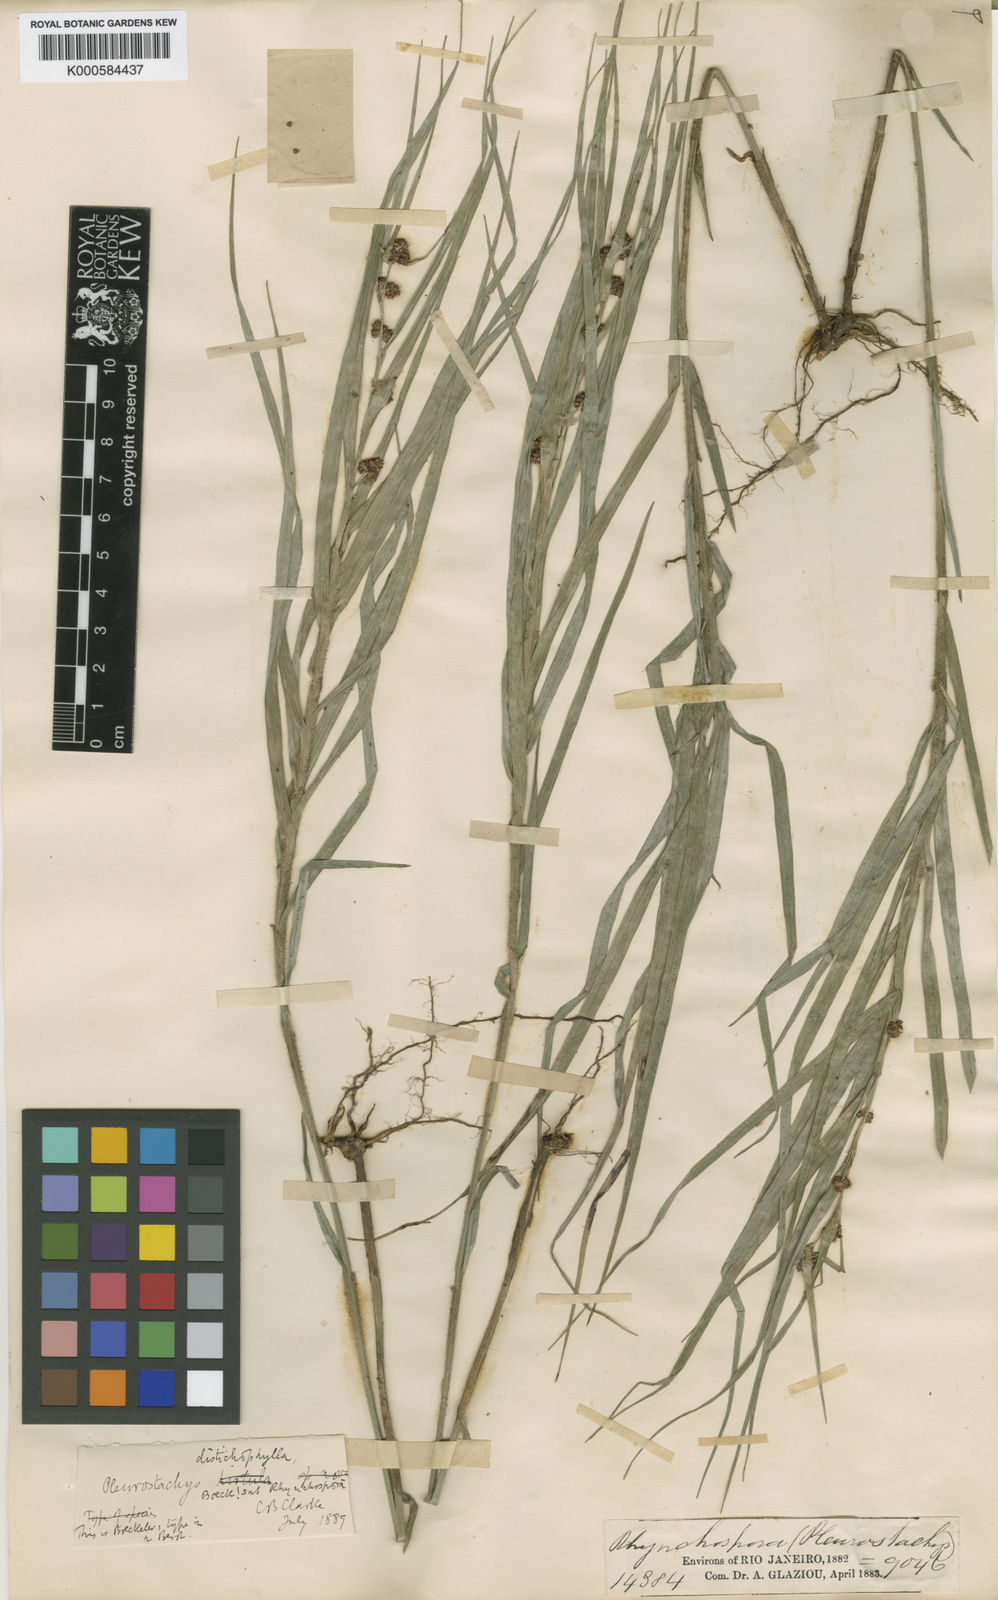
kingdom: Plantae
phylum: Tracheophyta
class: Liliopsida
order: Poales
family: Cyperaceae
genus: Rhynchospora
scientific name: Rhynchospora distichophylla
